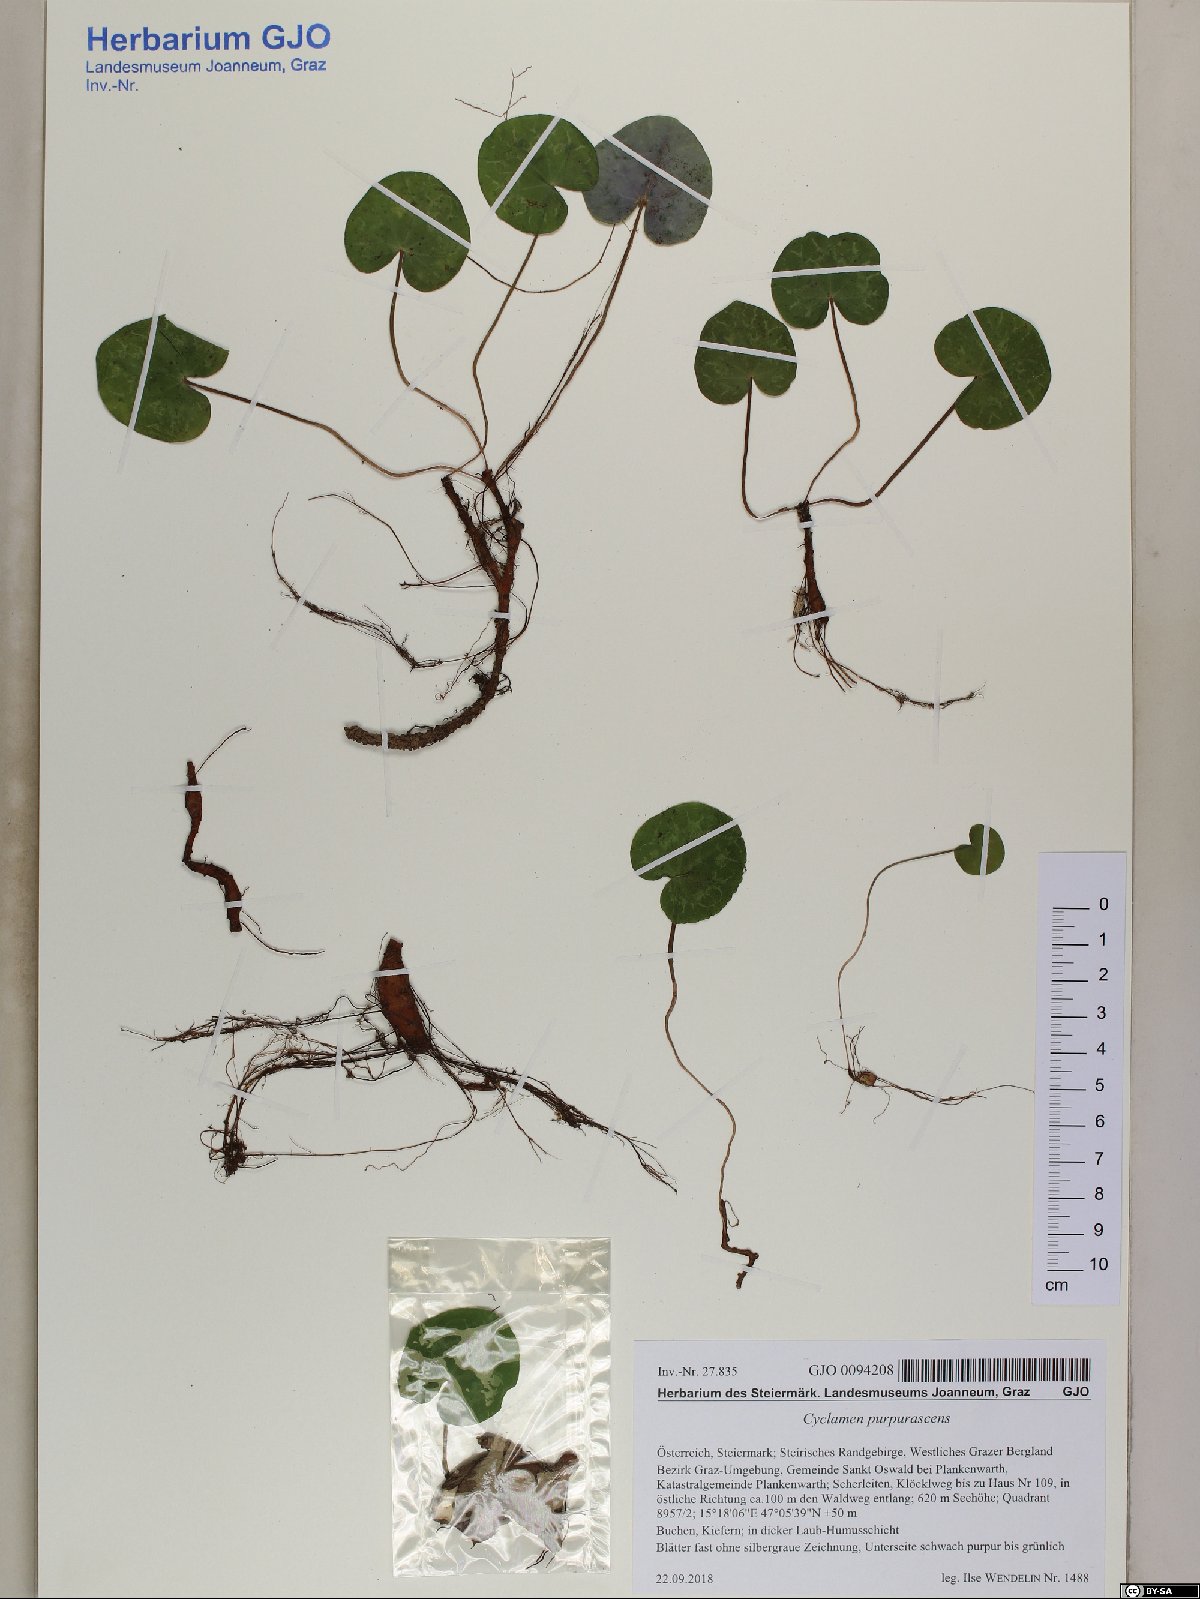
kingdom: Plantae
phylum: Tracheophyta
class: Magnoliopsida
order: Ericales
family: Primulaceae
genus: Cyclamen
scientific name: Cyclamen purpurascens
